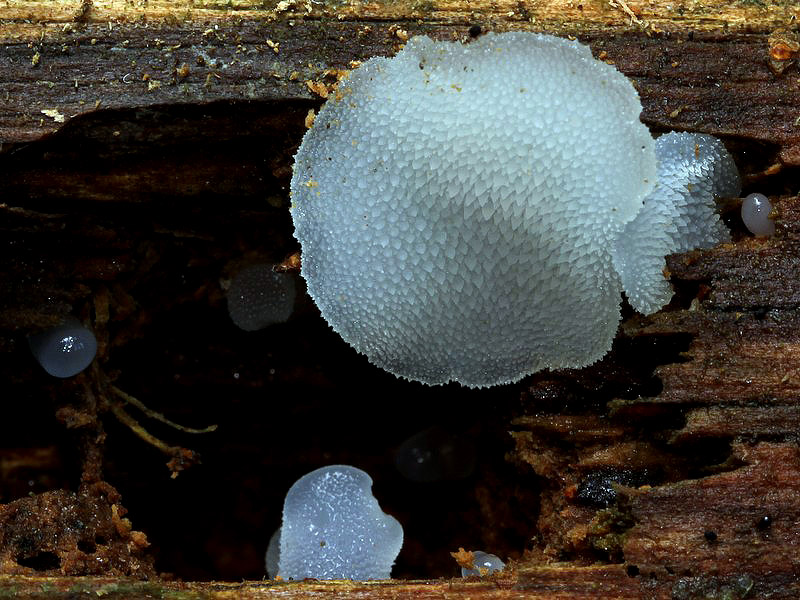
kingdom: Fungi
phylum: Basidiomycota
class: Agaricomycetes
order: Auriculariales
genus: Pseudohydnum
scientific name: Pseudohydnum gelatinosum
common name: bævretand
